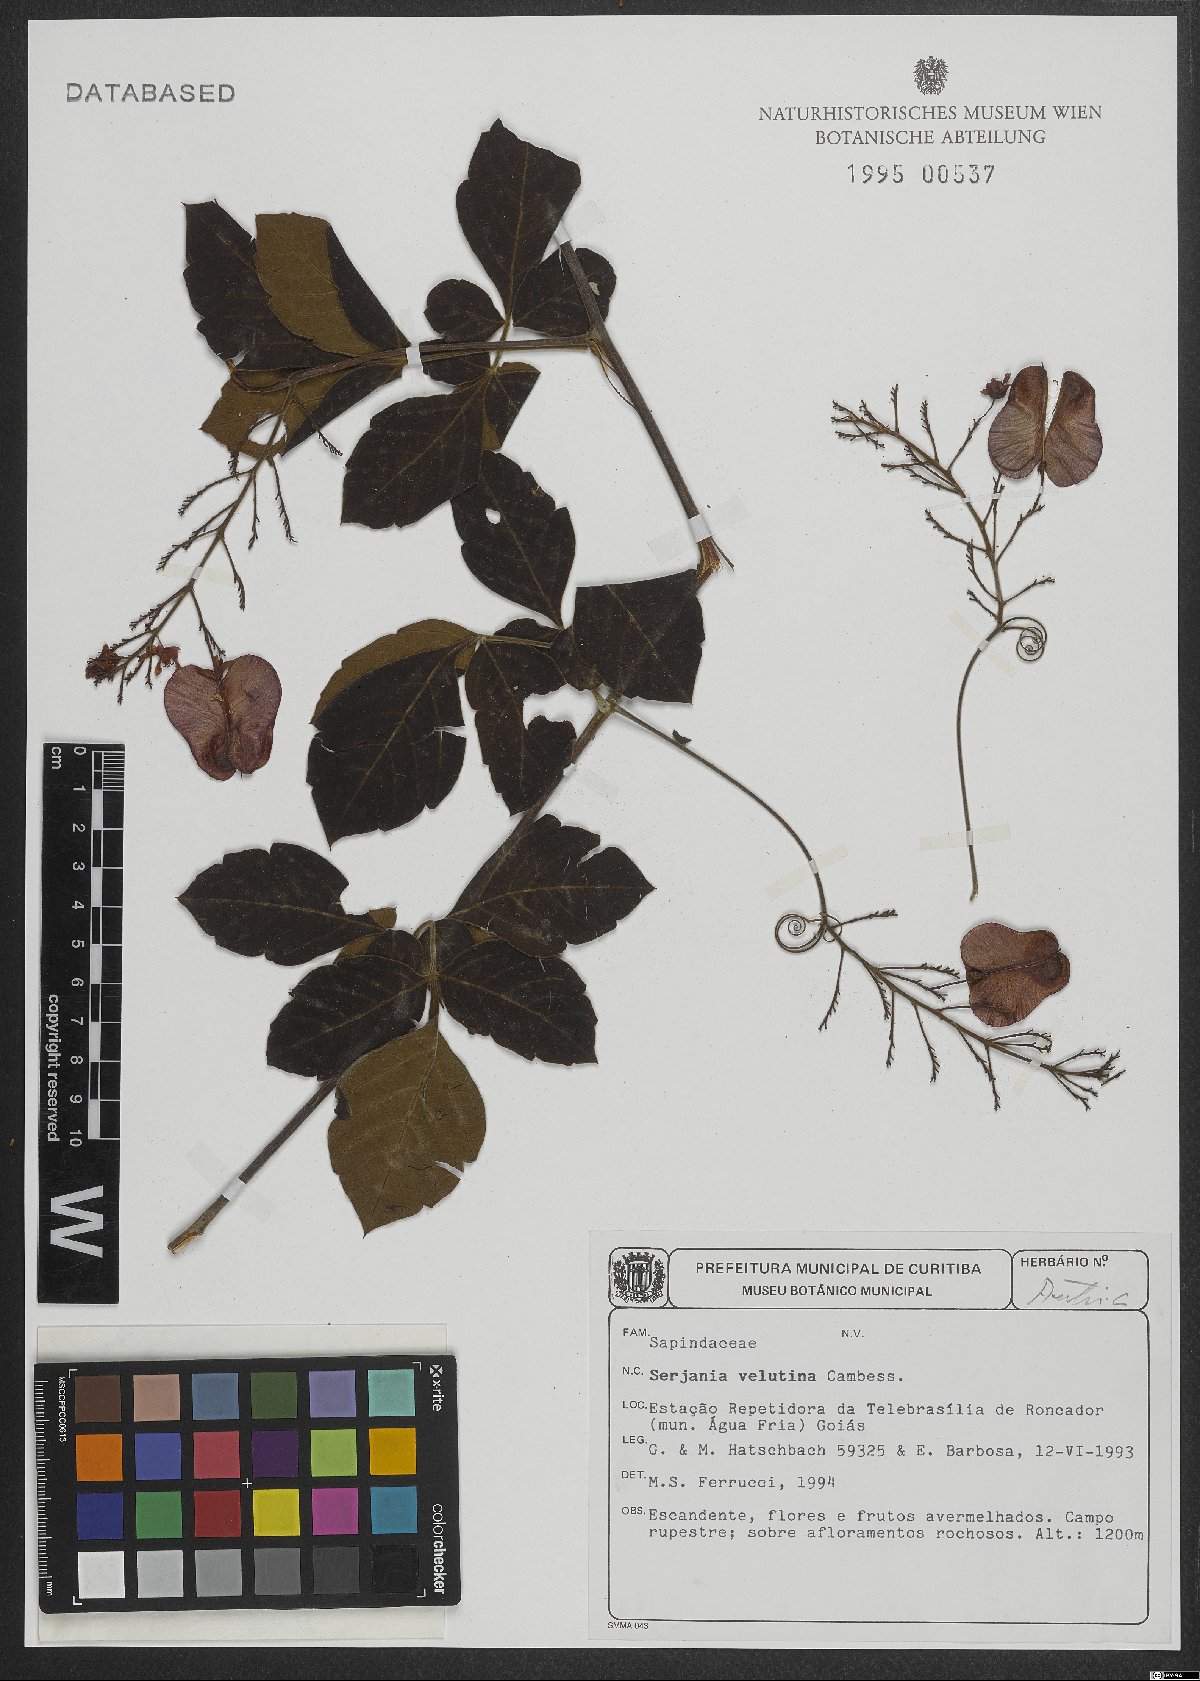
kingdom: Plantae
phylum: Tracheophyta
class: Magnoliopsida
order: Sapindales
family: Sapindaceae
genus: Serjania
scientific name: Serjania velutina
